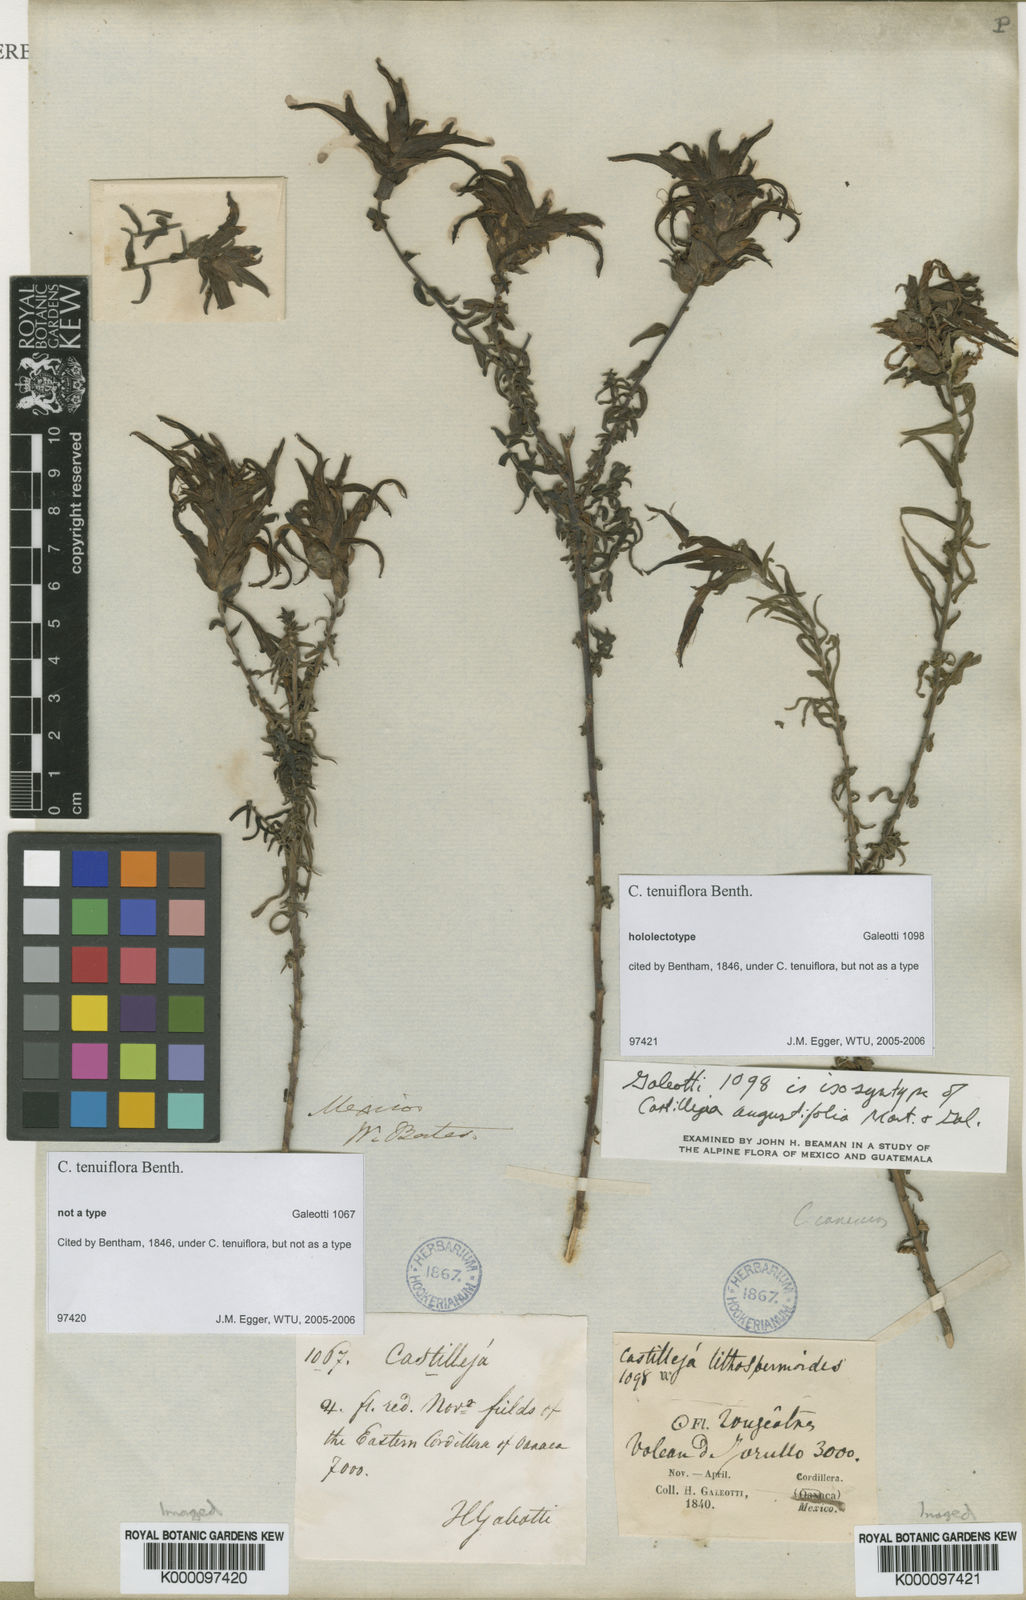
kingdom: Plantae
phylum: Tracheophyta
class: Magnoliopsida
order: Lamiales
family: Orobanchaceae
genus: Castilleja
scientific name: Castilleja tenuiflora
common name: Santa catalina indian paintbrush
